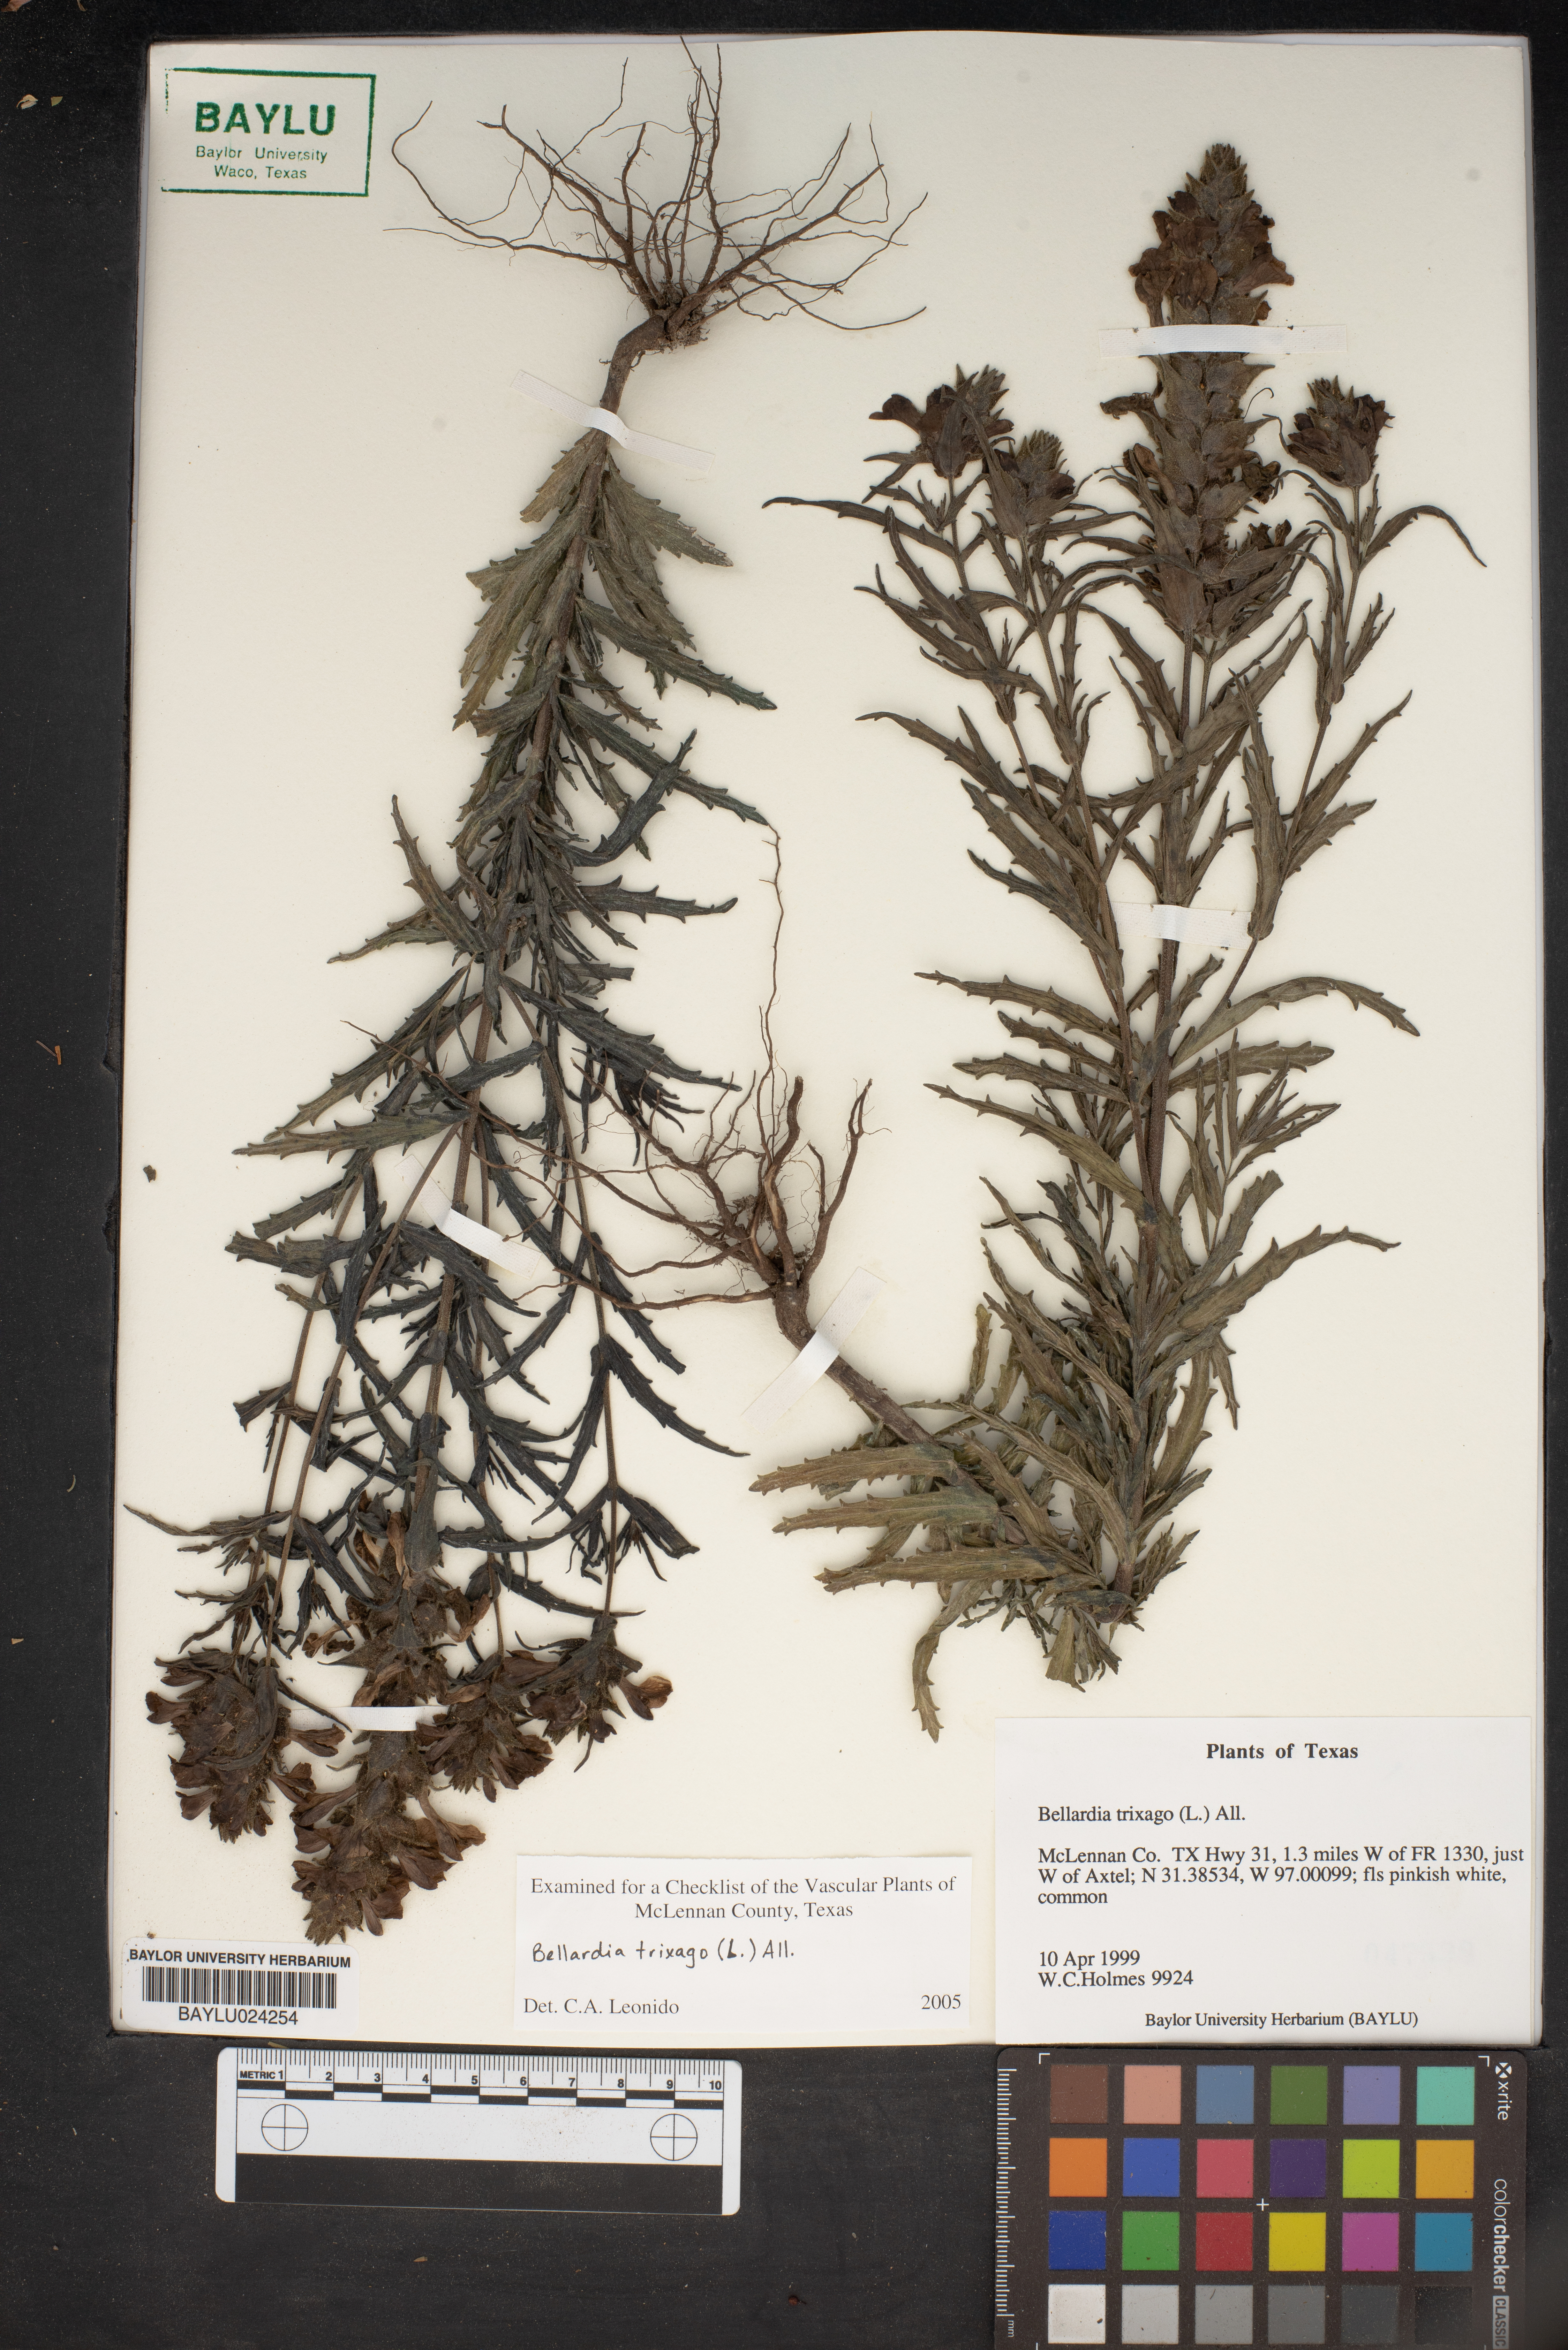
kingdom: Plantae
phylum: Tracheophyta
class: Magnoliopsida
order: Lamiales
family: Orobanchaceae
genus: Bellardia
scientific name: Bellardia trixago
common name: Mediterranean lineseed
